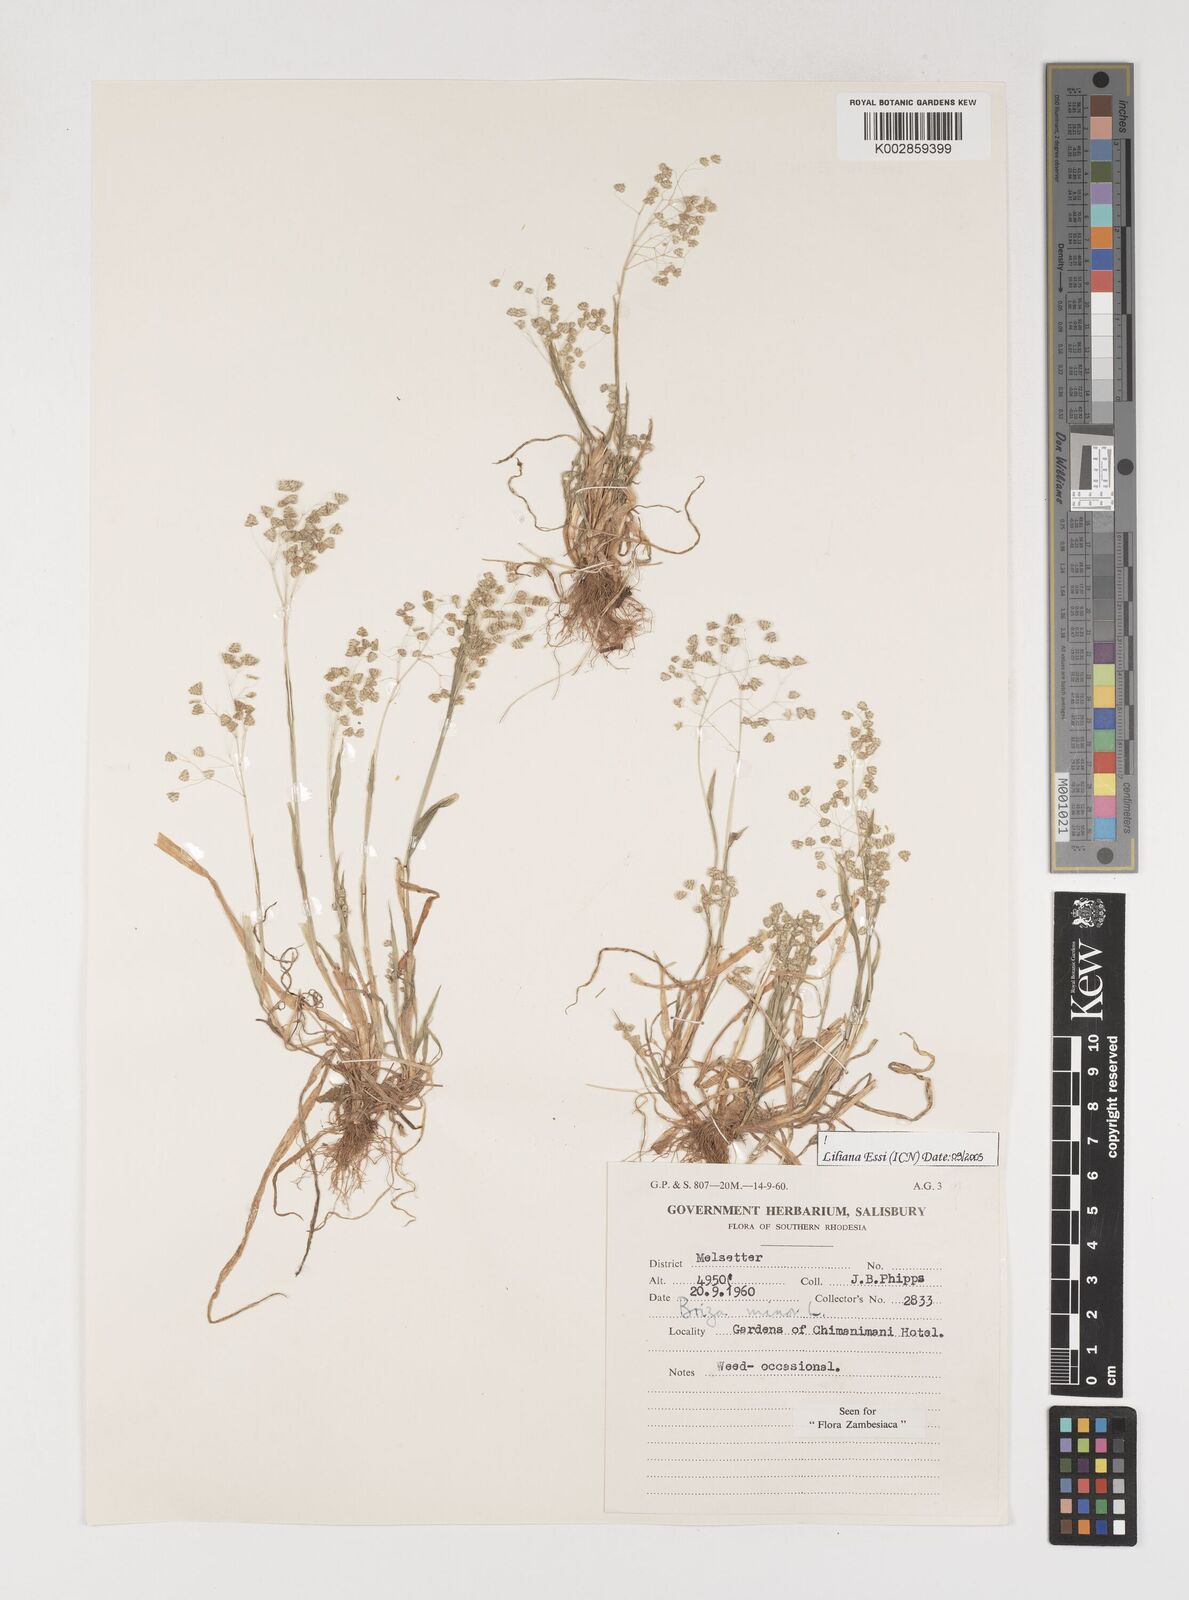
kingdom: Plantae
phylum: Tracheophyta
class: Liliopsida
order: Poales
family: Poaceae
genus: Briza
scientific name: Briza minor
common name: Lesser quaking-grass
